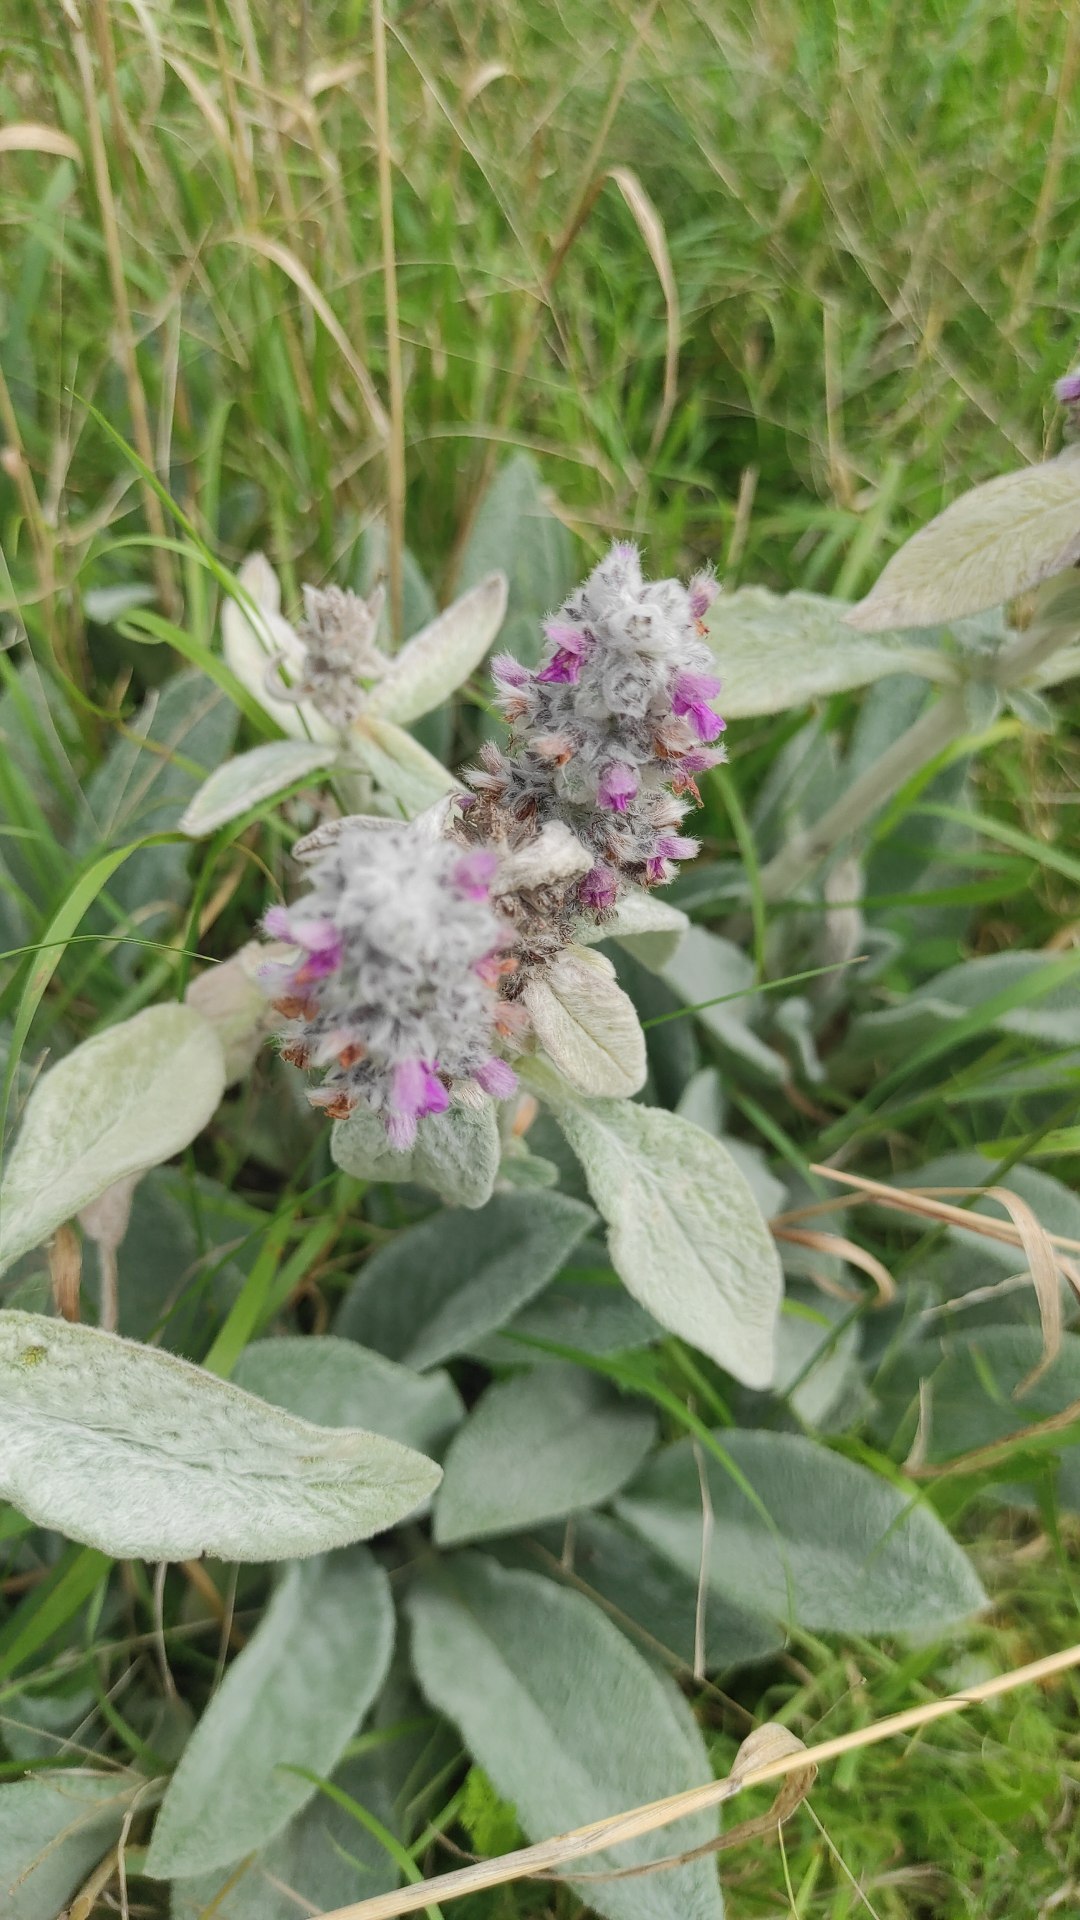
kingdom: Plantae
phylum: Tracheophyta
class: Magnoliopsida
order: Lamiales
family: Lamiaceae
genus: Stachys
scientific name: Stachys byzantina
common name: Lammeøre
